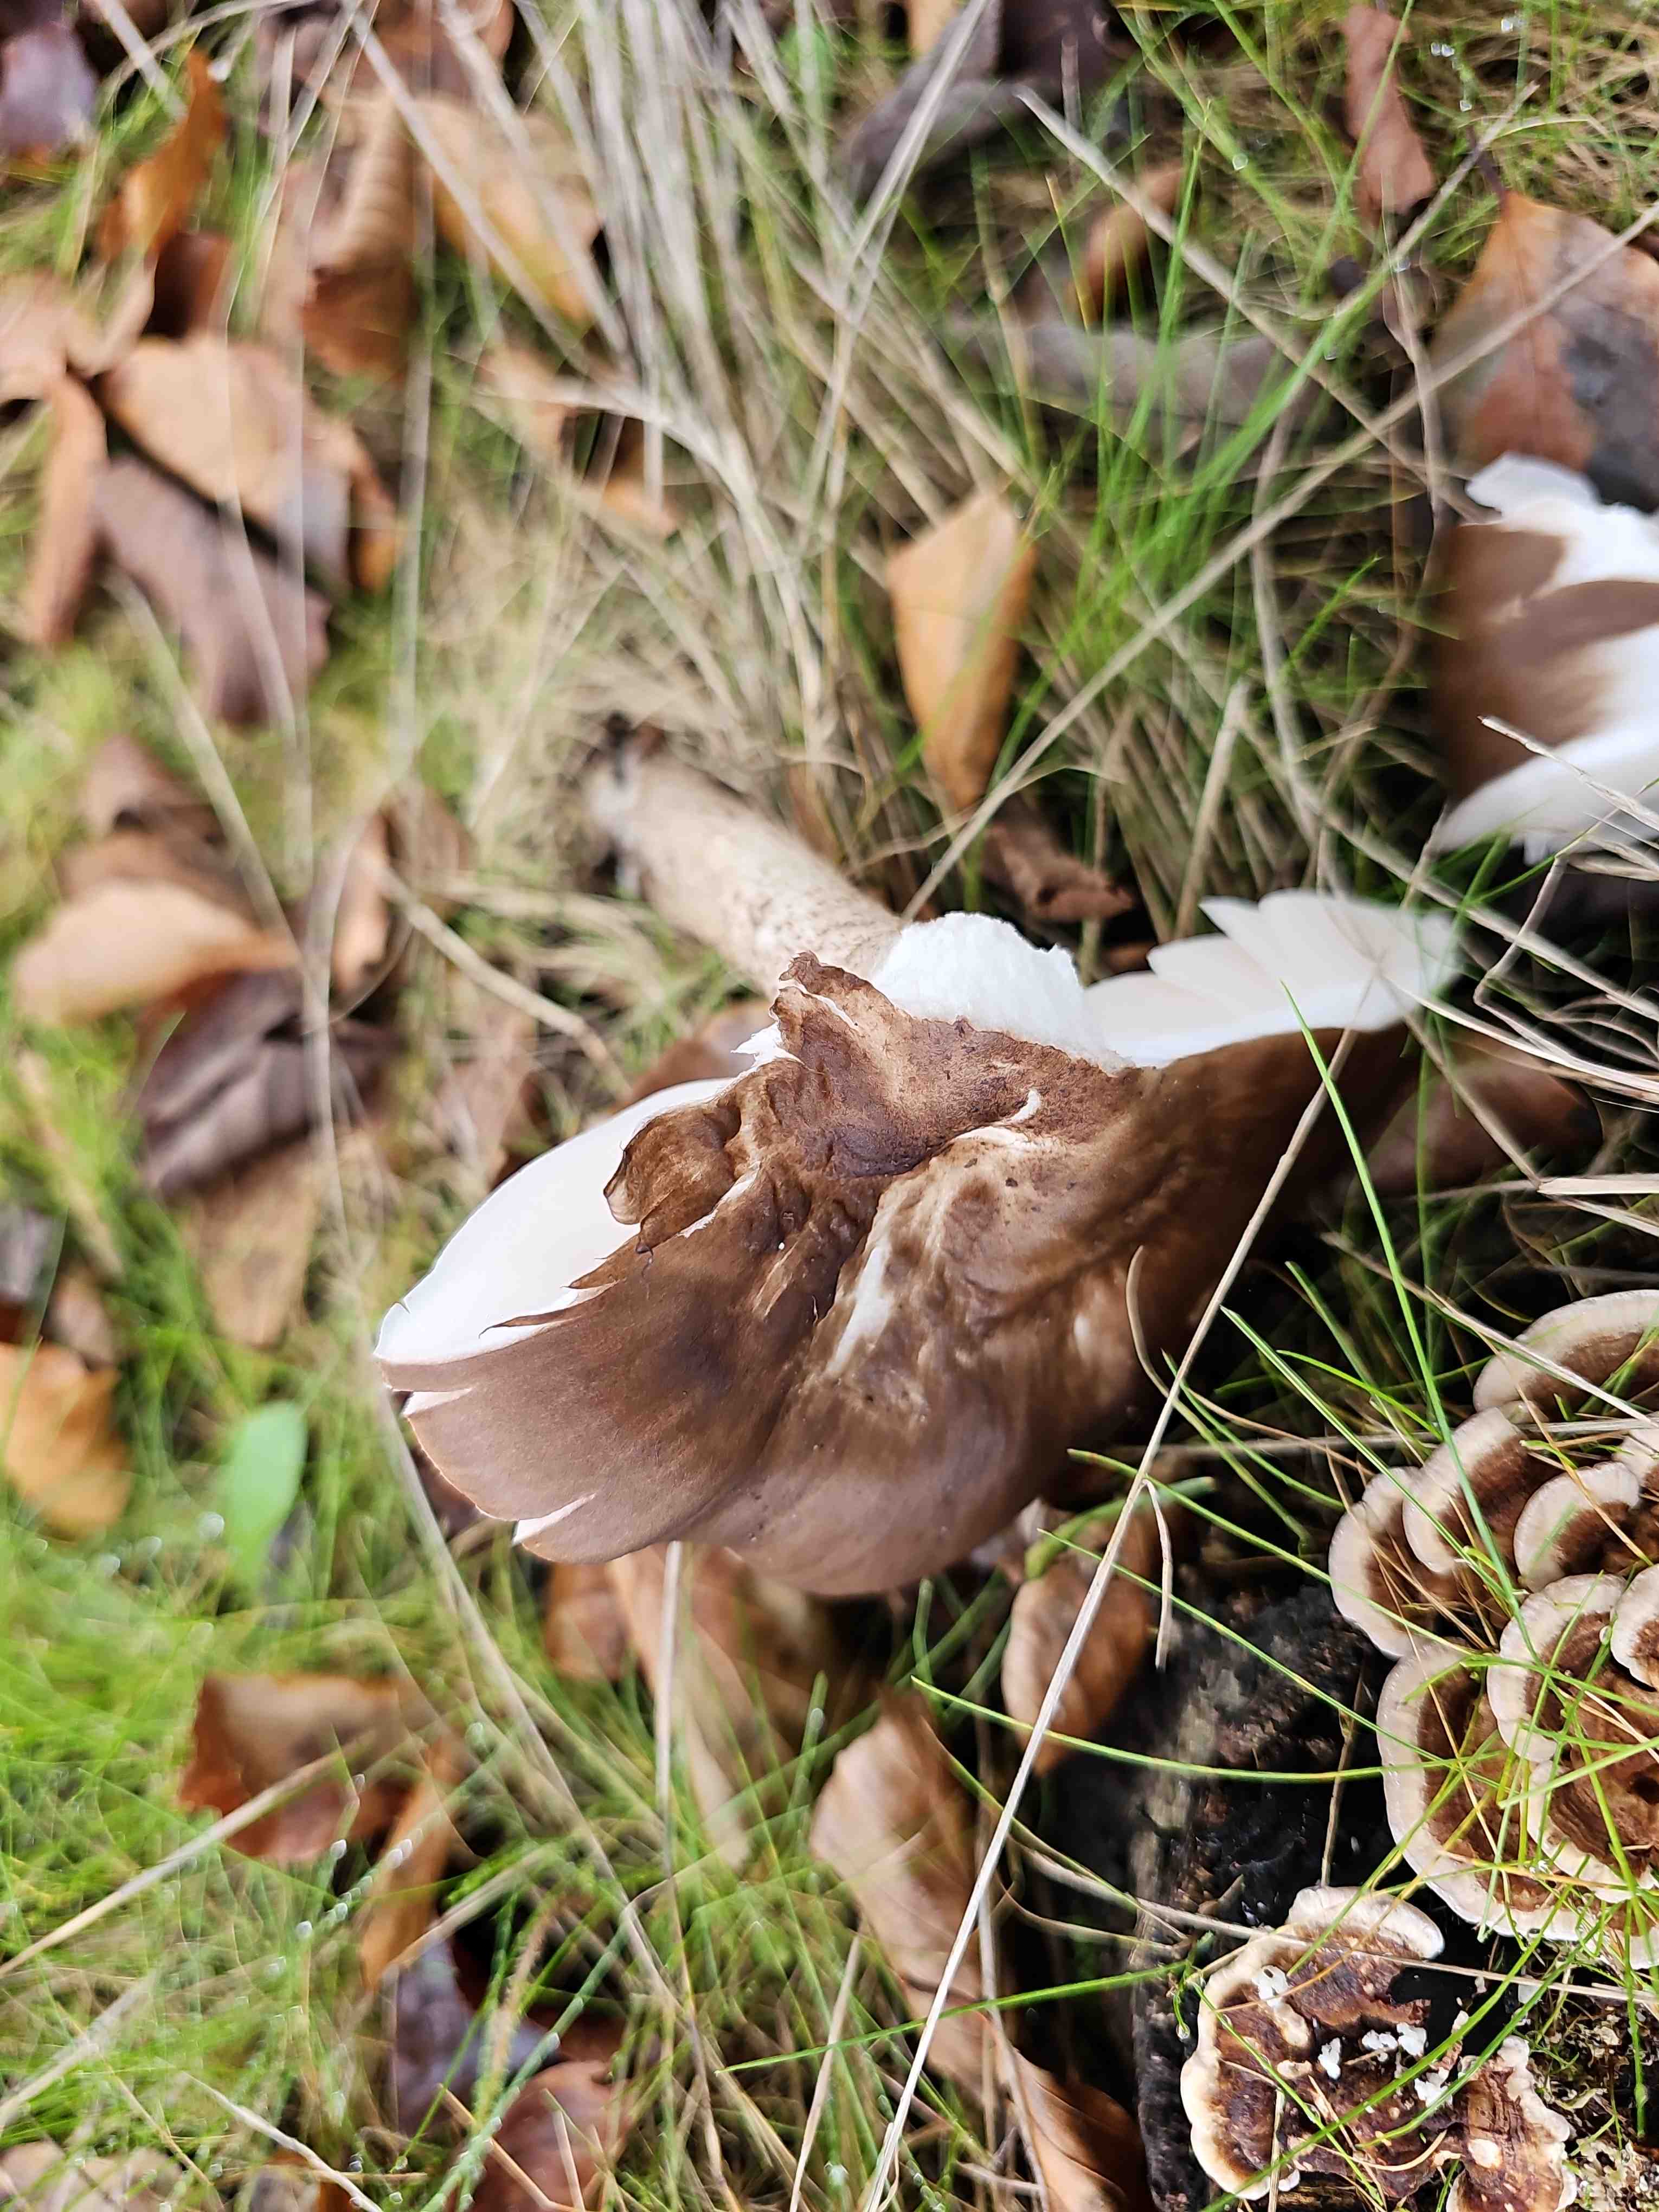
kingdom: Fungi
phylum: Basidiomycota
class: Agaricomycetes
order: Agaricales
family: Pluteaceae
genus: Pluteus
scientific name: Pluteus cervinus
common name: sodfarvet skærmhat
